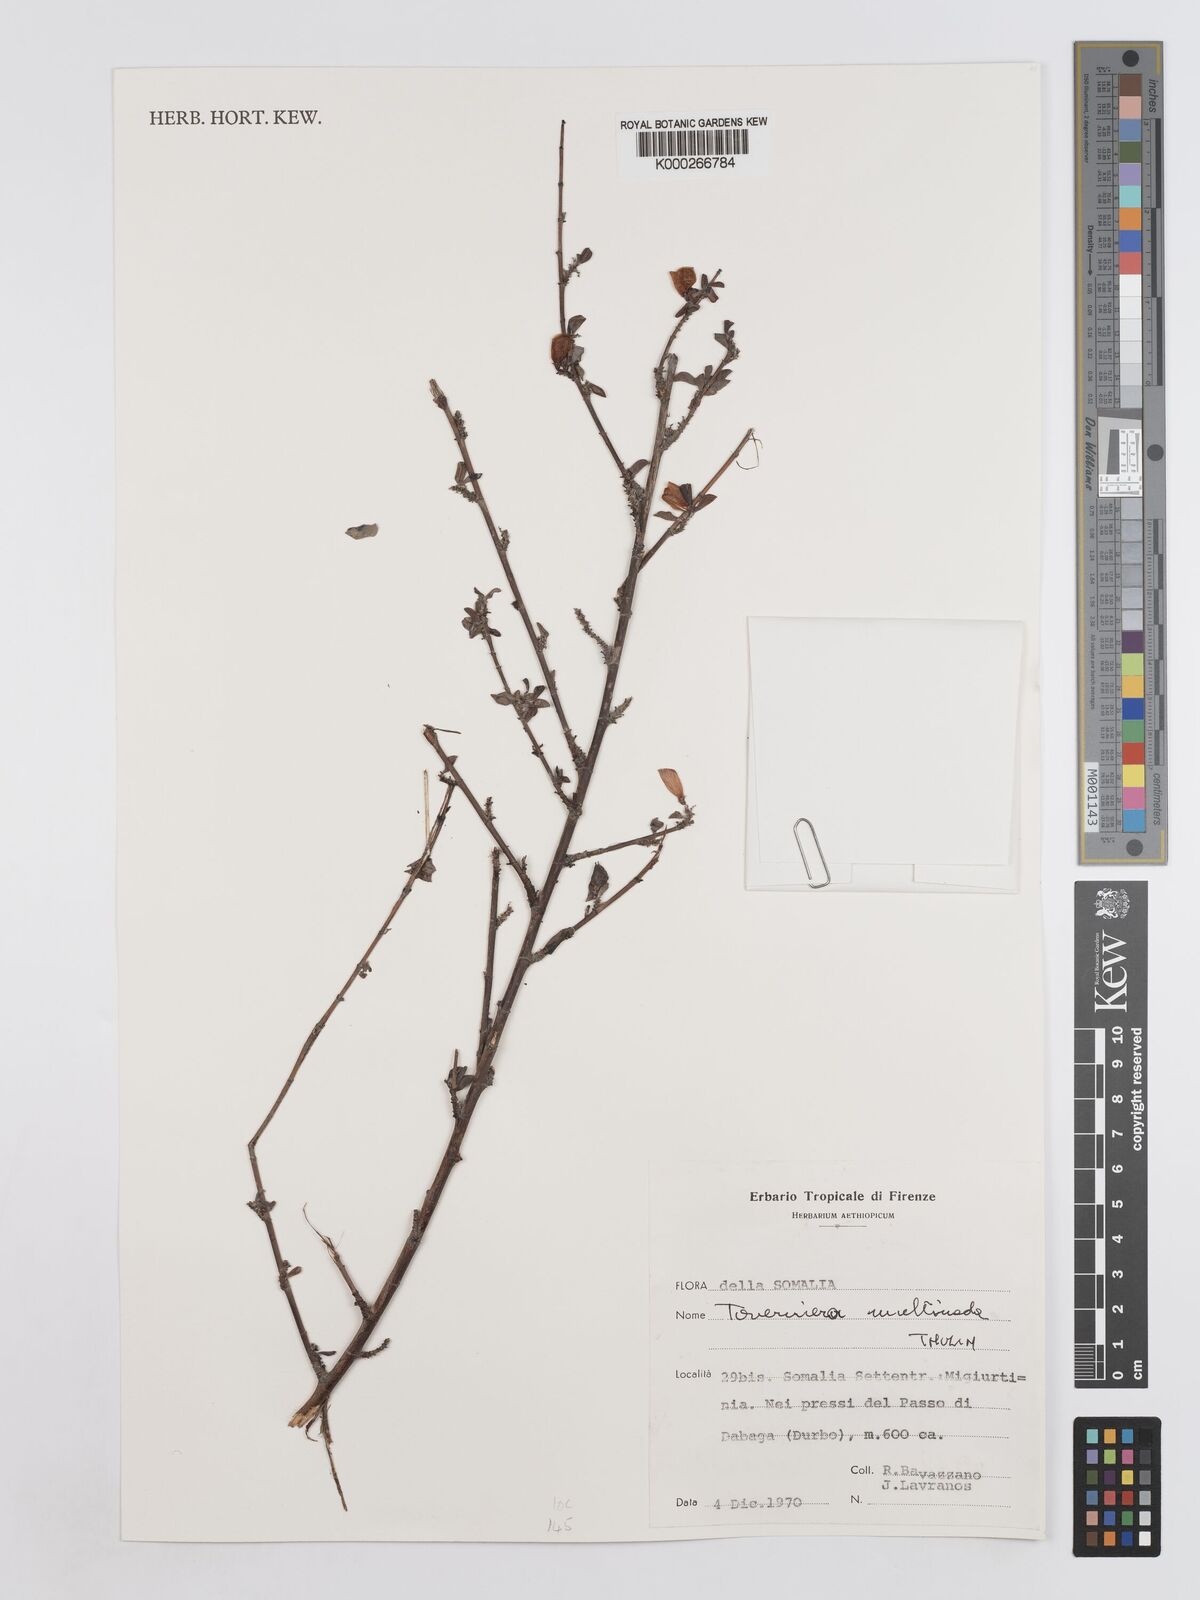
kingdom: Plantae
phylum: Tracheophyta
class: Magnoliopsida
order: Fabales
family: Fabaceae
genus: Taverniera
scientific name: Taverniera multinoda
